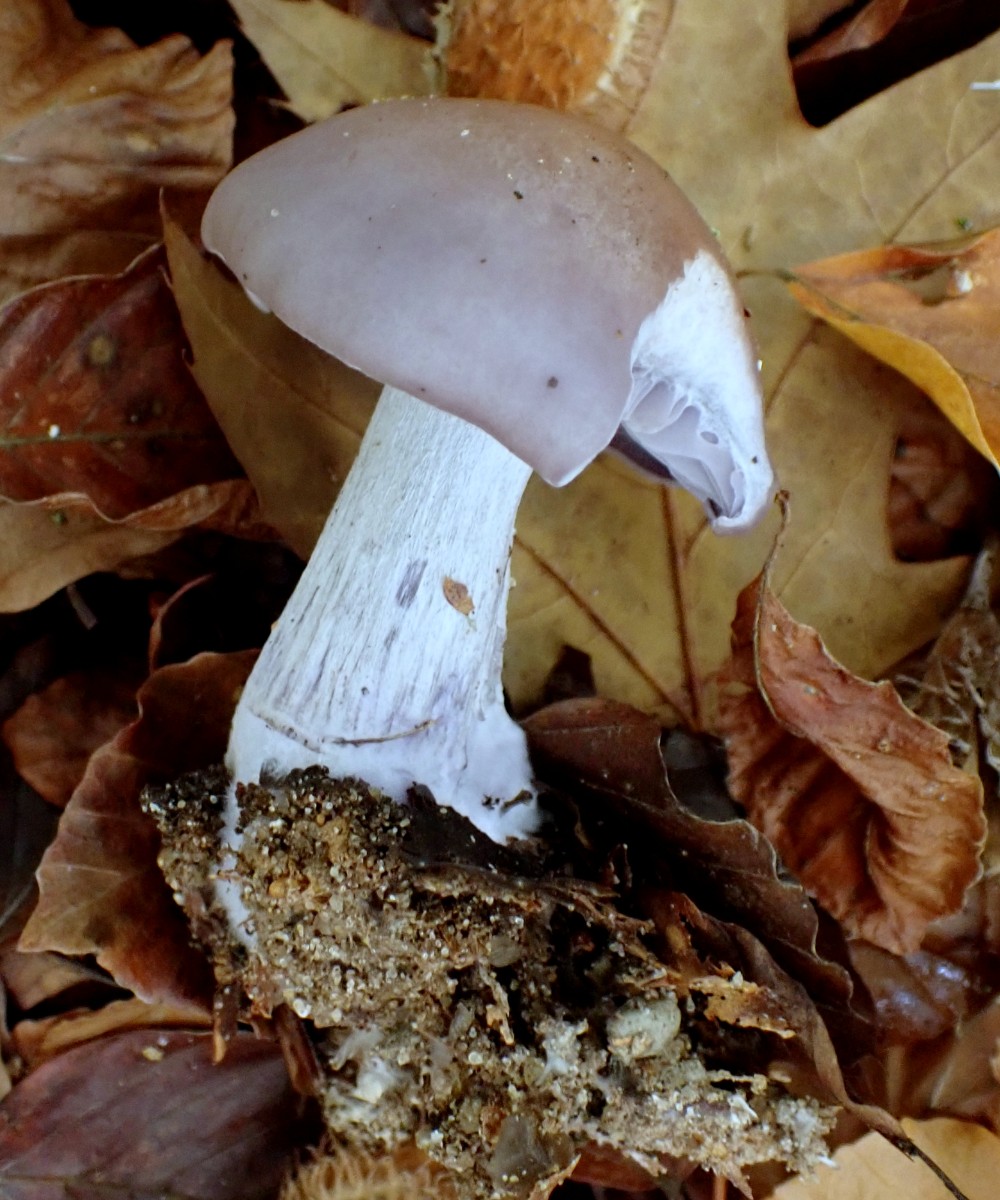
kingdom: Fungi
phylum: Basidiomycota
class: Agaricomycetes
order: Agaricales
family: Tricholomataceae
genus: Lepista
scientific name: Lepista nuda
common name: violet hekseringshat
